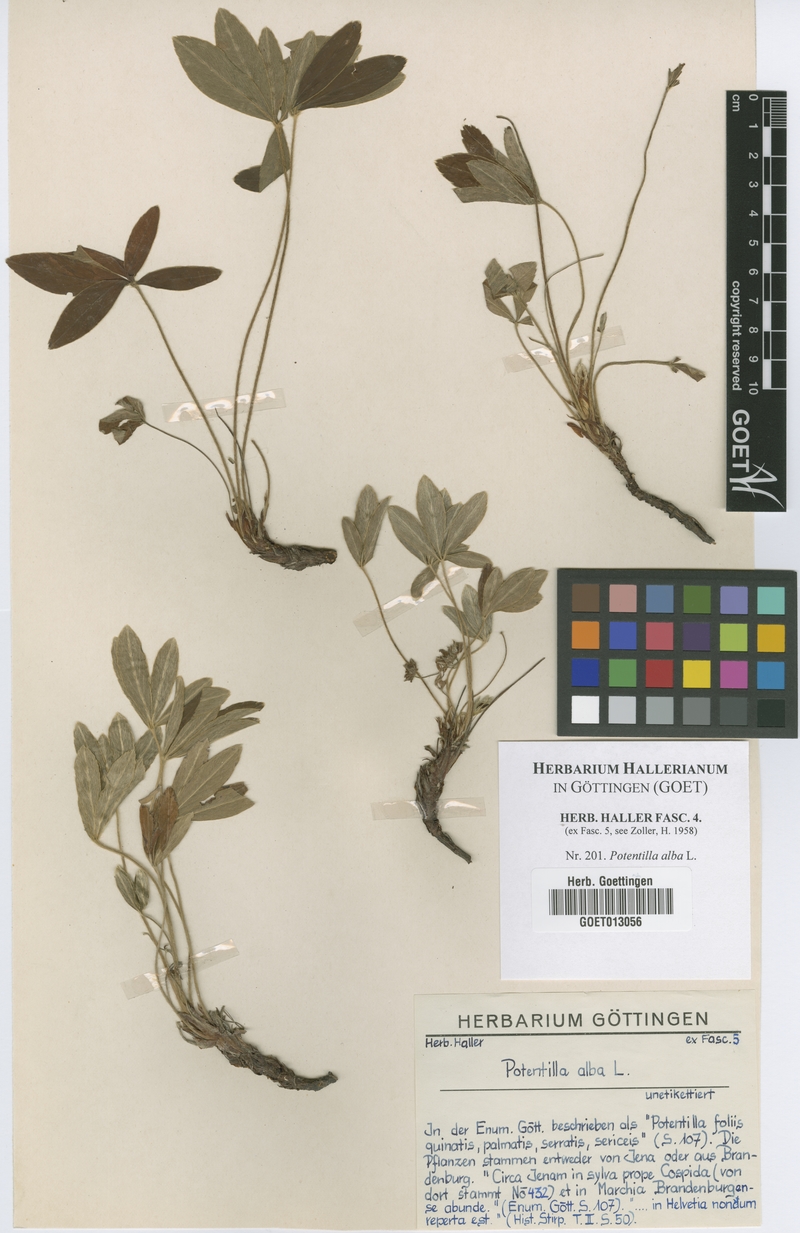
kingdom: Plantae
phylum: Tracheophyta
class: Magnoliopsida
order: Rosales
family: Rosaceae
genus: Potentilla
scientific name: Potentilla alba
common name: White cinquefoil
